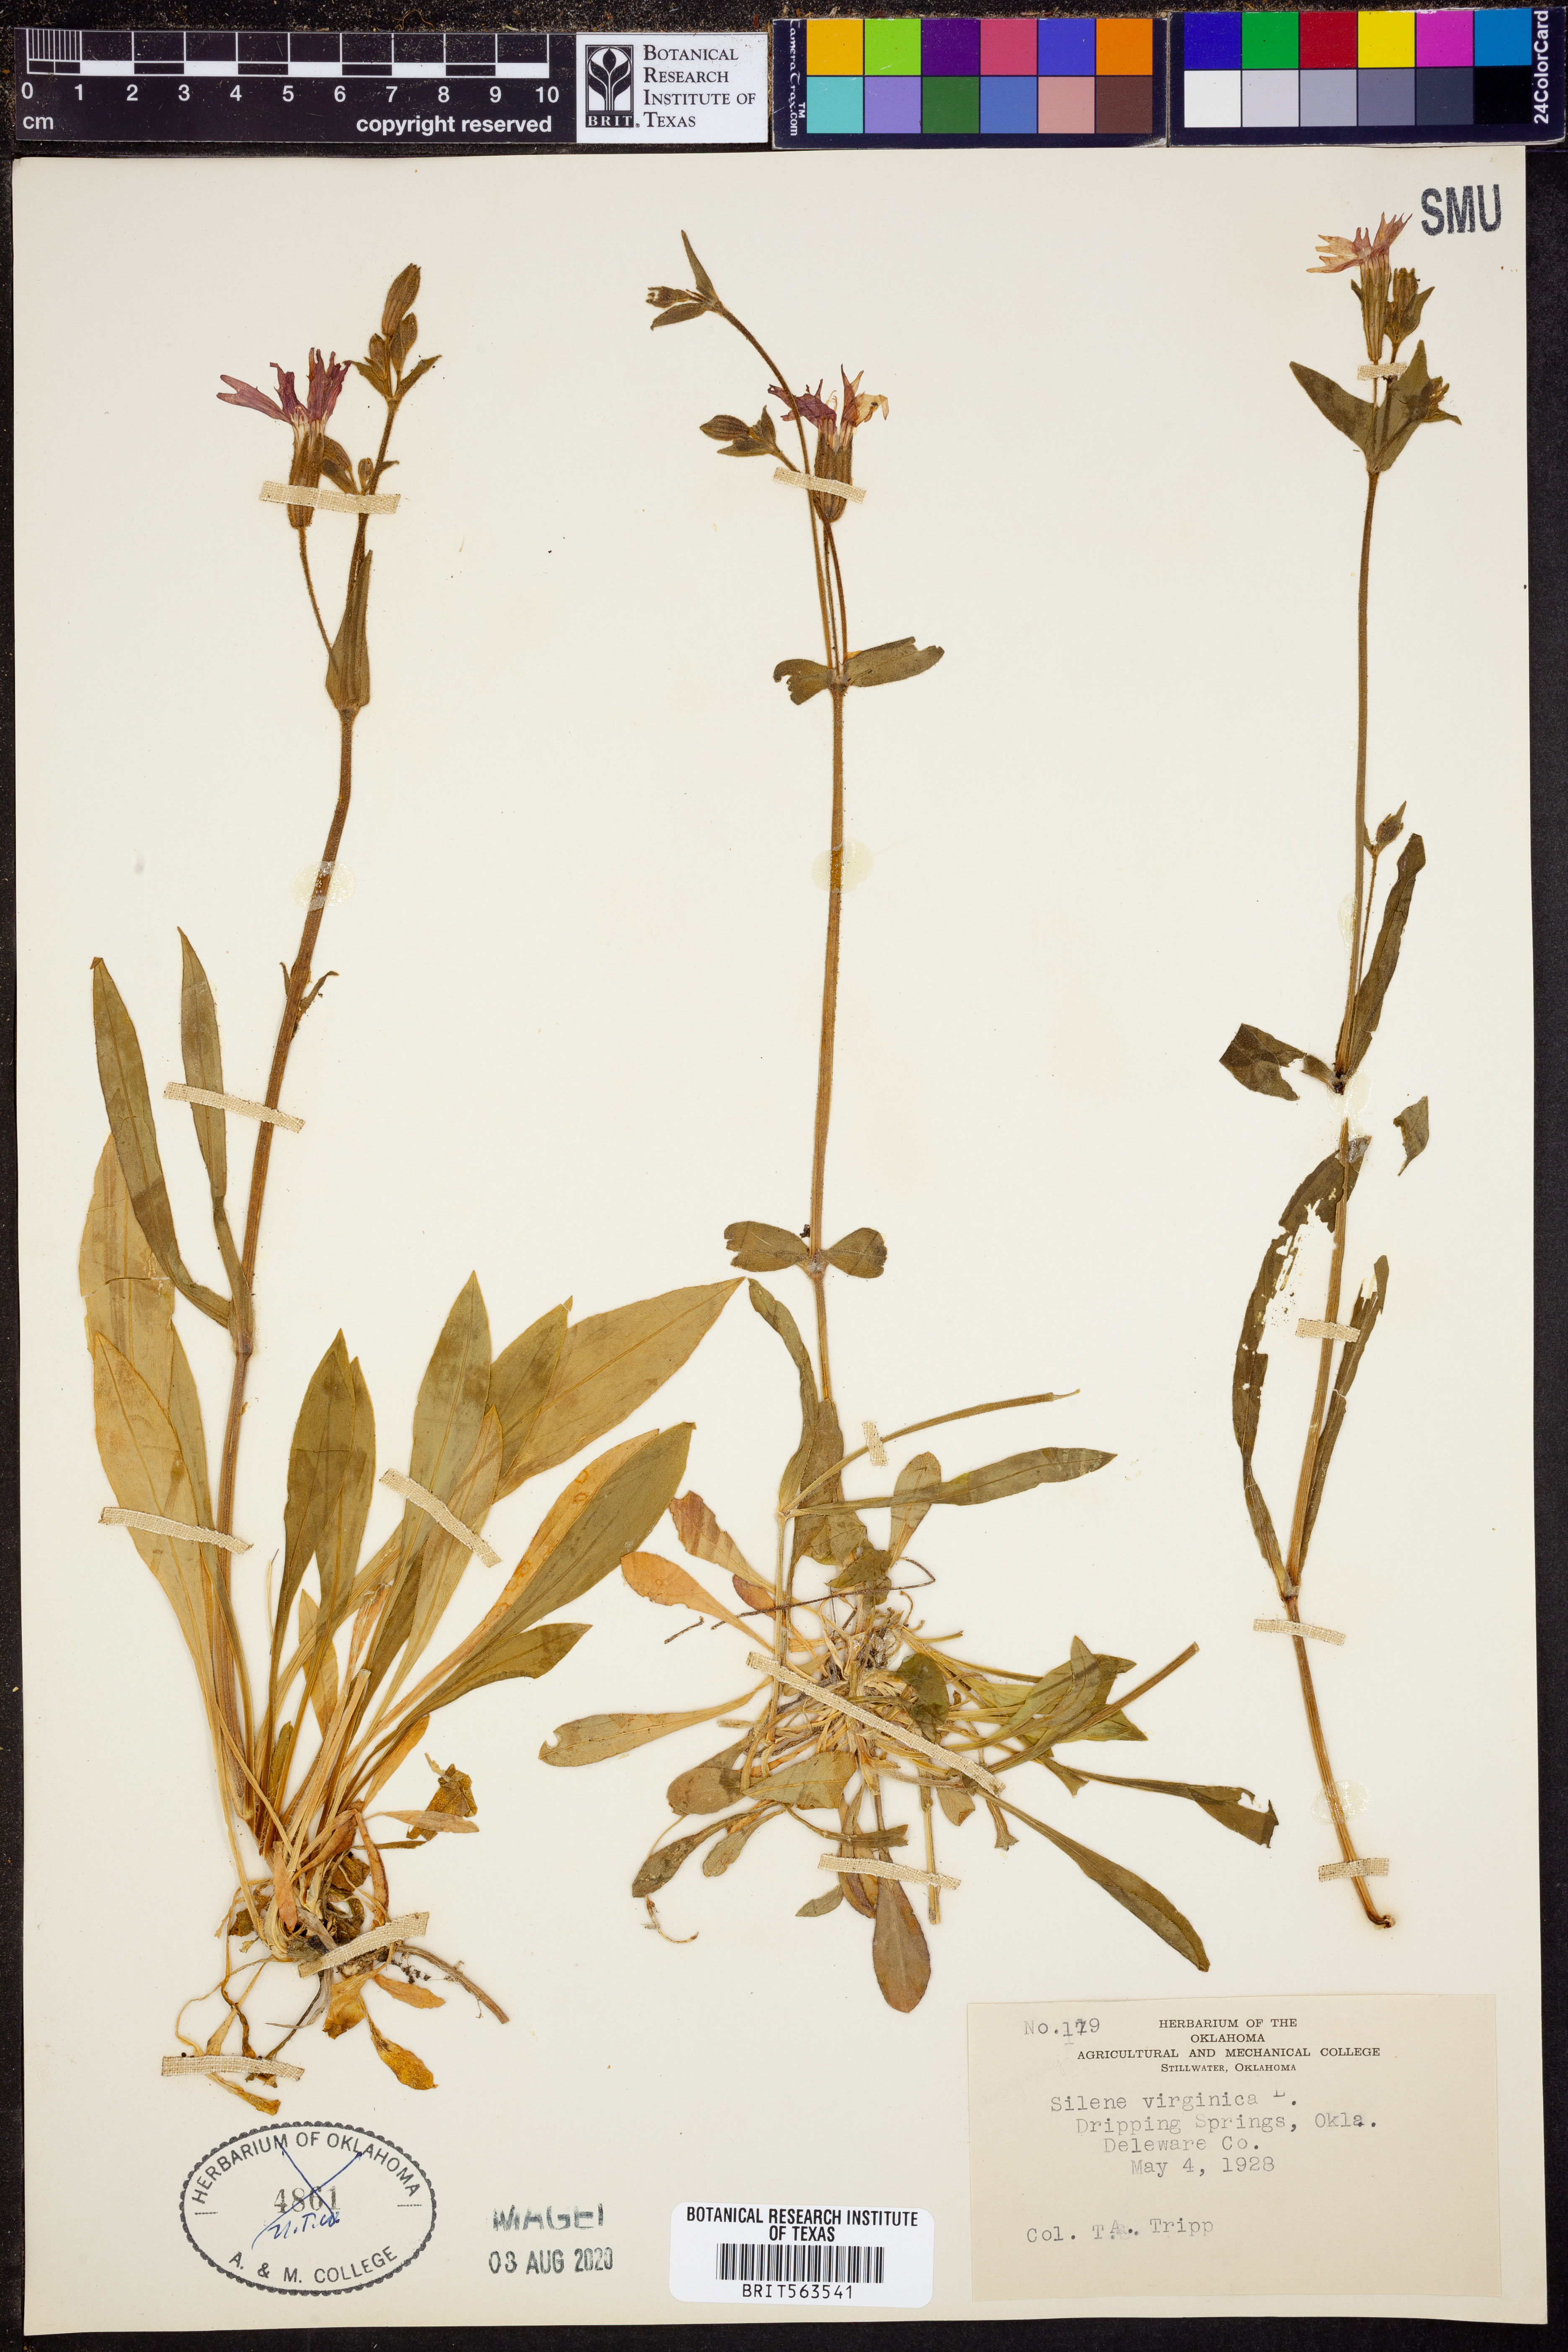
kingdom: Plantae
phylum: Tracheophyta
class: Magnoliopsida
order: Caryophyllales
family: Caryophyllaceae
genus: Silene
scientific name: Silene virginica
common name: Fire-pink
